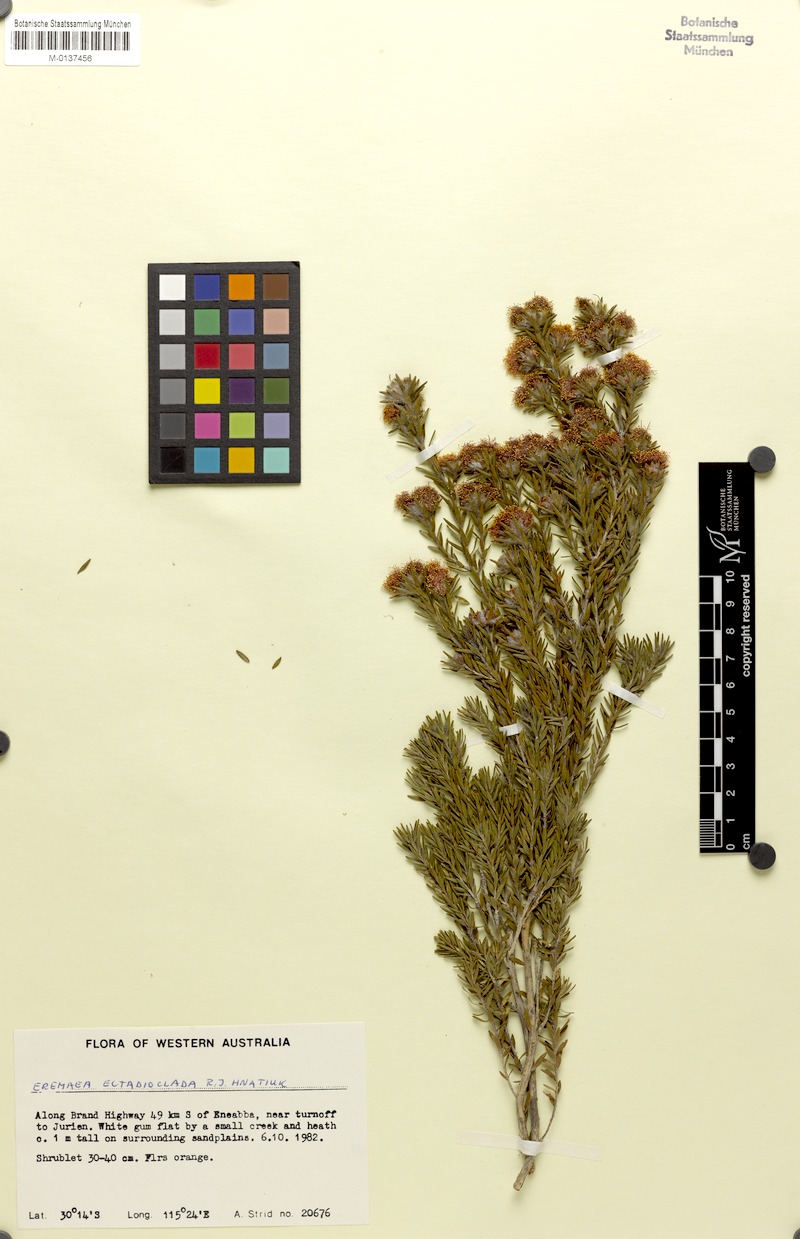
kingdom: Plantae
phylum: Tracheophyta
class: Magnoliopsida
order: Myrtales
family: Myrtaceae
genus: Melaleuca
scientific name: Melaleuca ectadioclada
